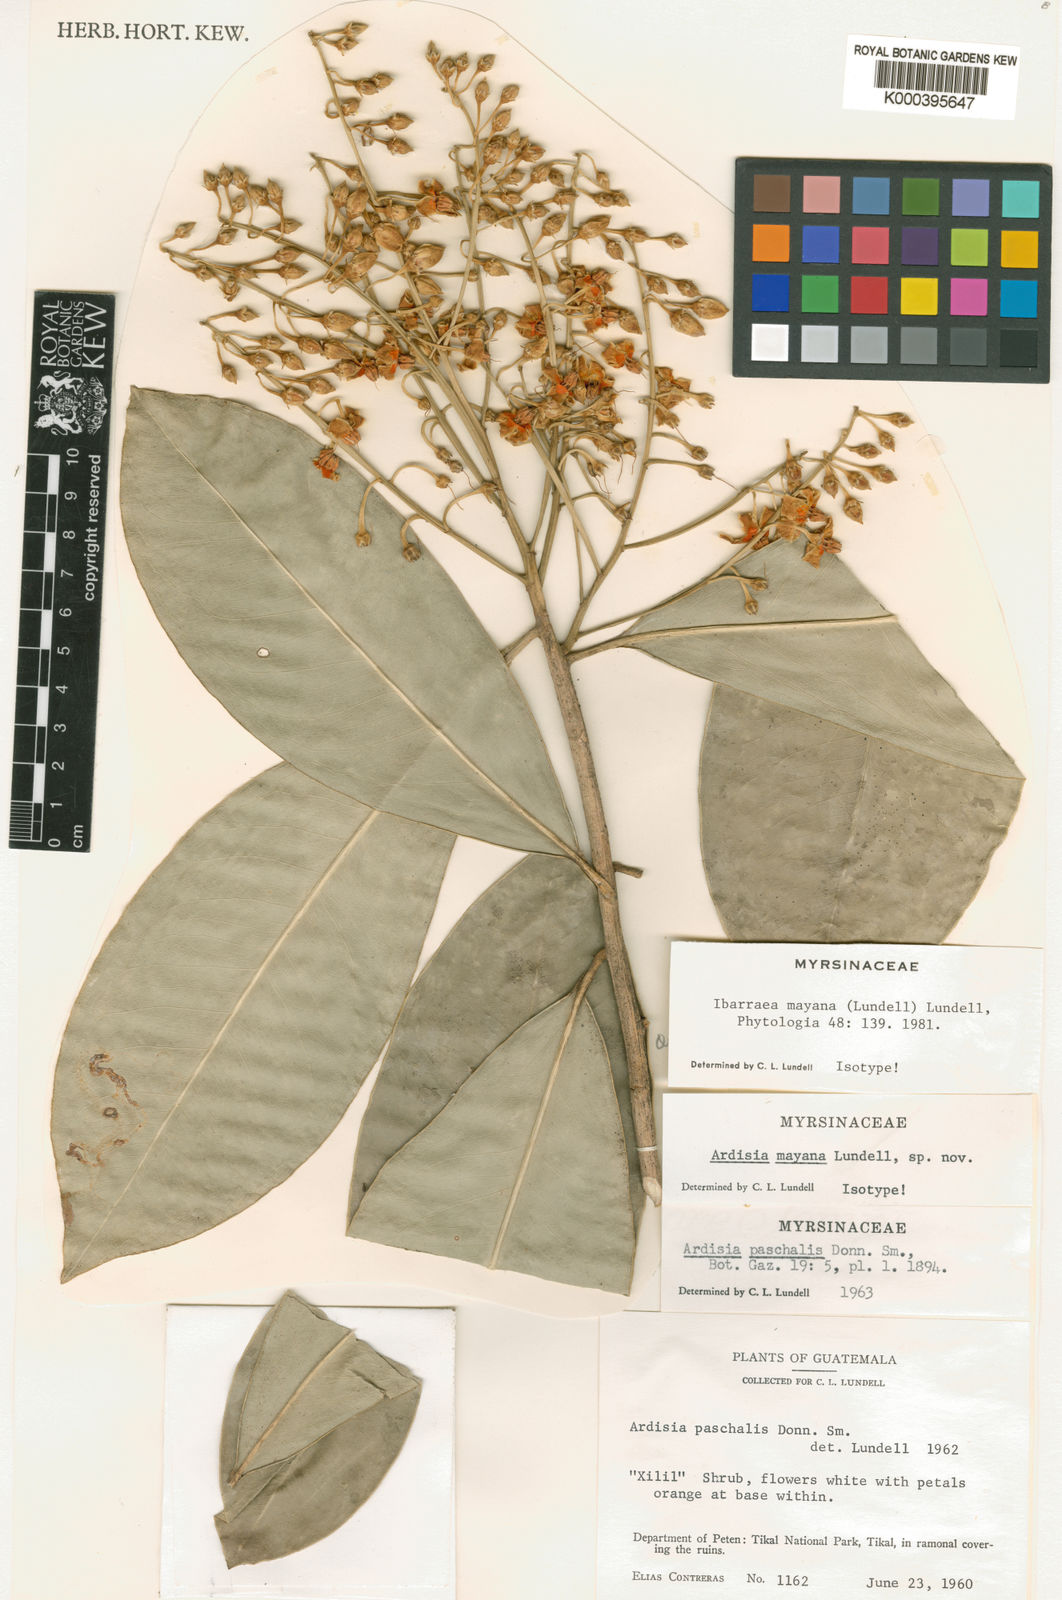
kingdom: Plantae
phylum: Tracheophyta
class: Magnoliopsida
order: Ericales
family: Primulaceae
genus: Ardisia
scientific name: Ardisia paschalis
